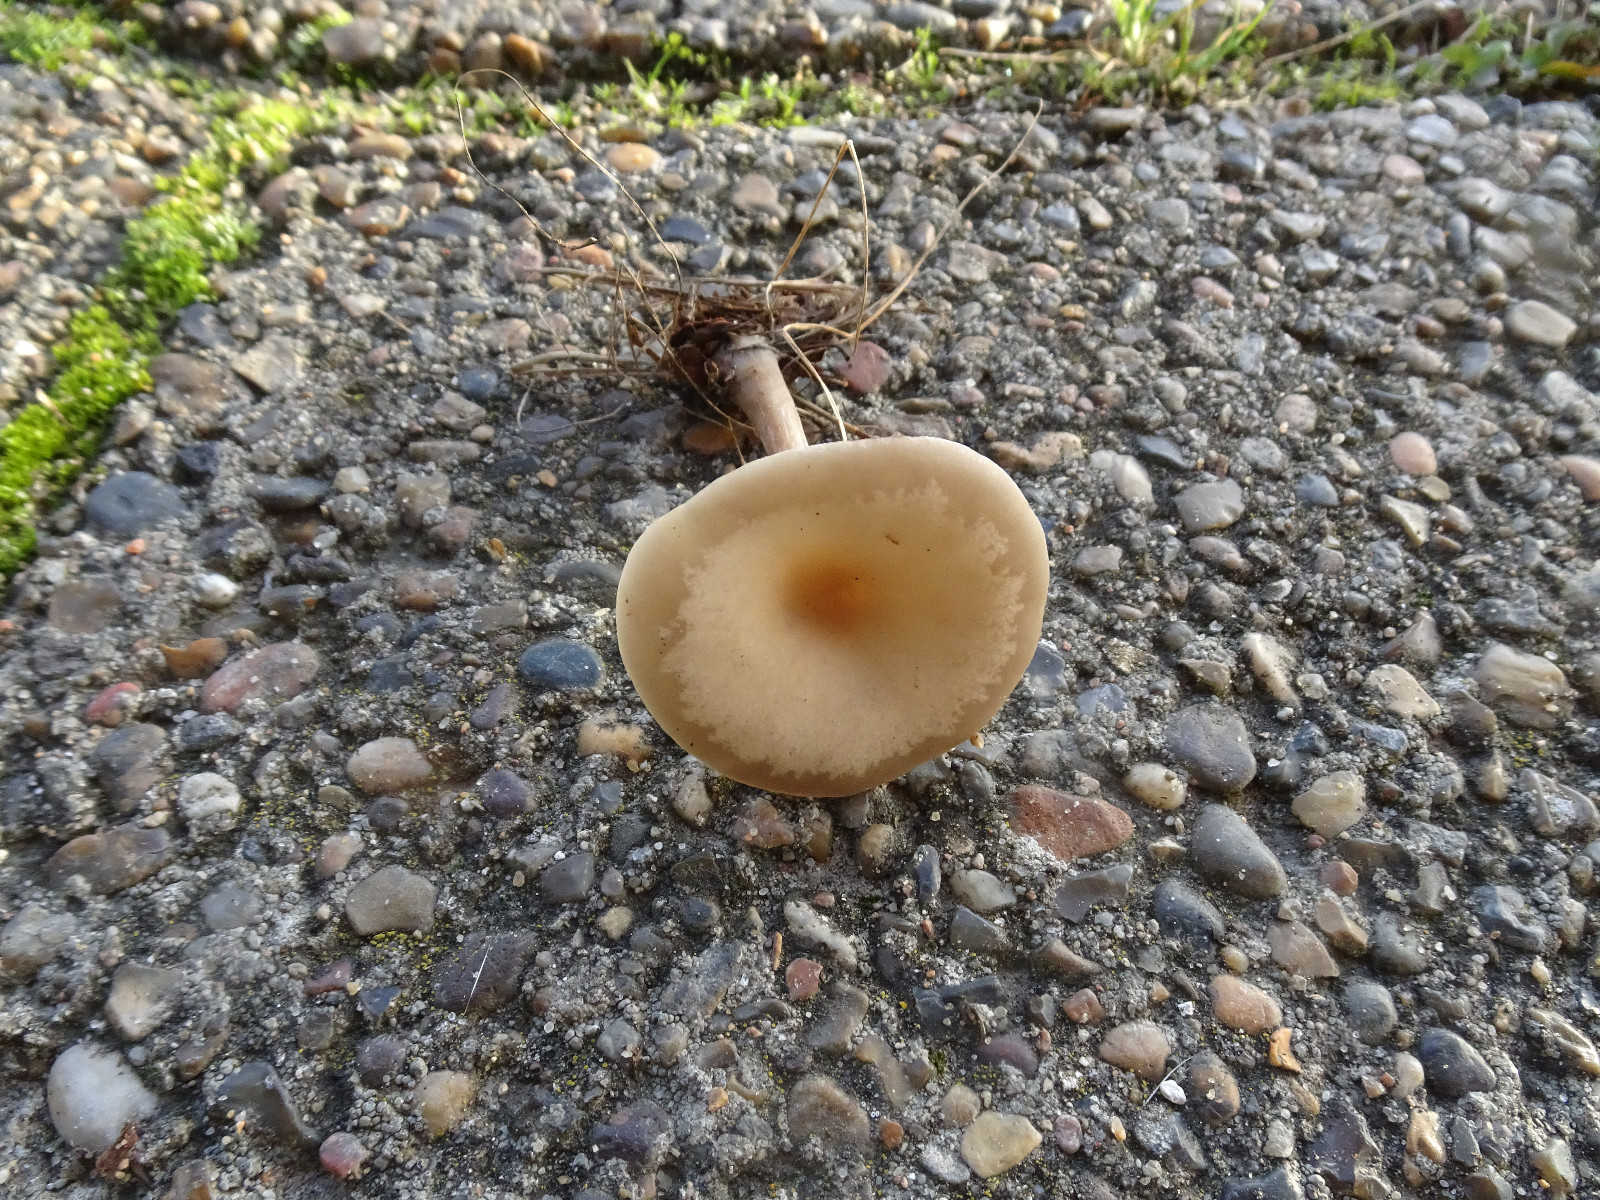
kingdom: Fungi
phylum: Basidiomycota
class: Agaricomycetes
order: Agaricales
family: Tricholomataceae
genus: Clitocybe
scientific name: Clitocybe metachroa
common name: grå tragthat
